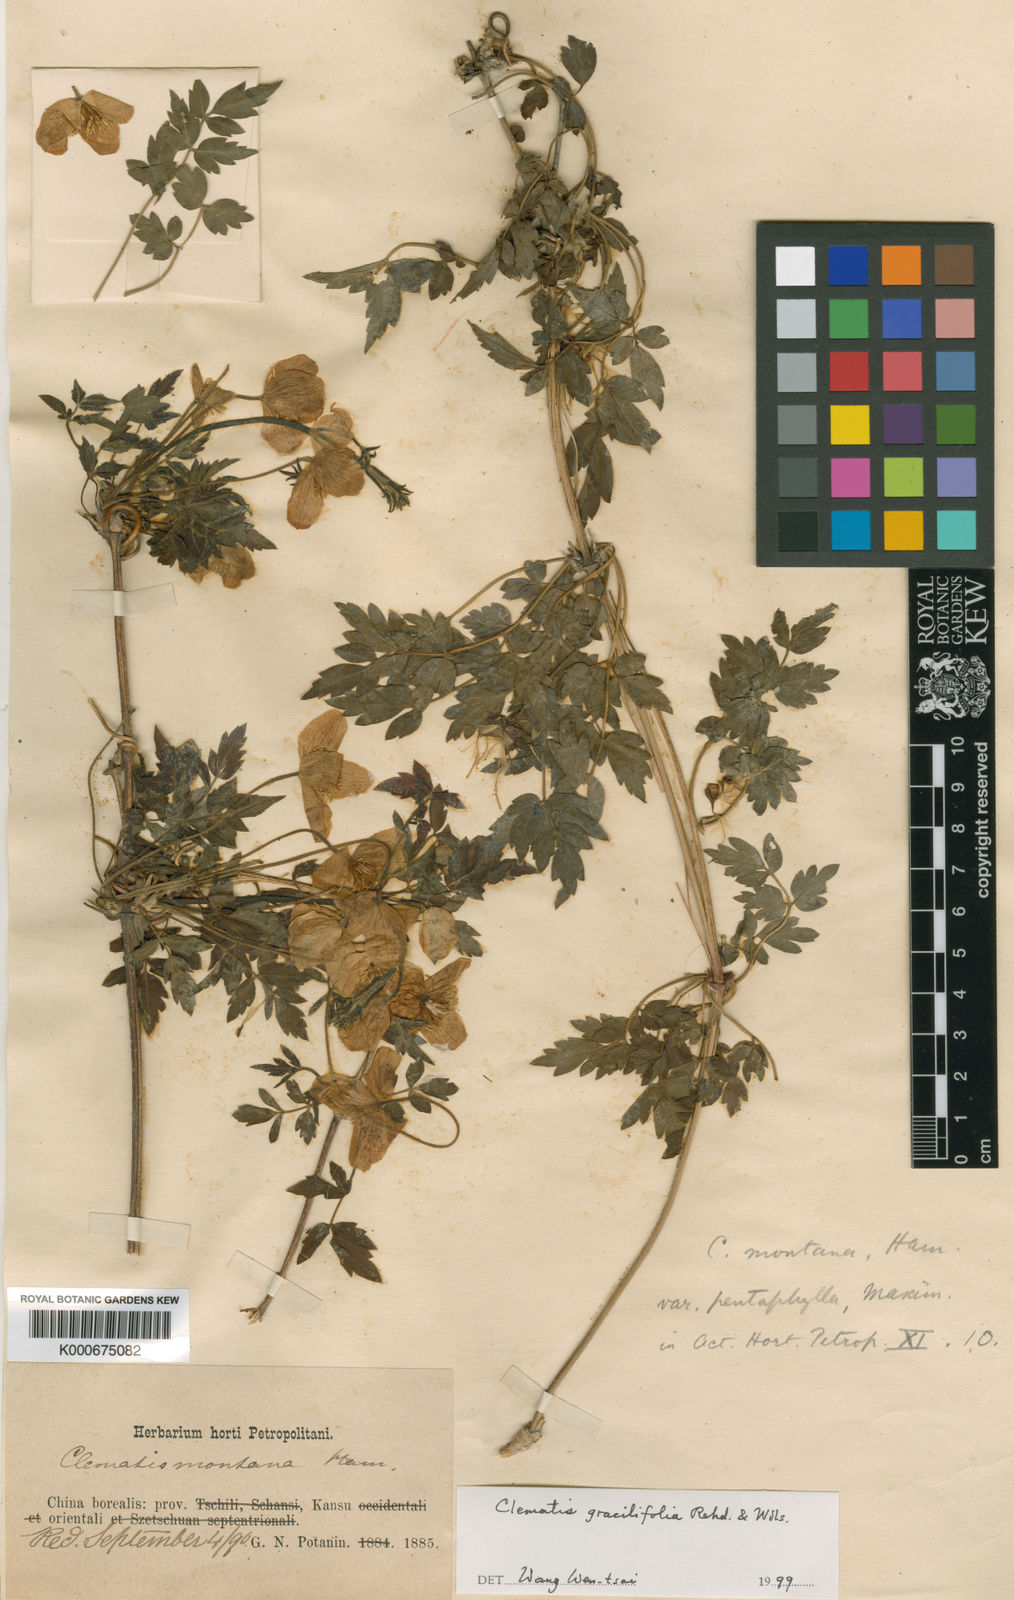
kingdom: Plantae
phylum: Tracheophyta
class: Magnoliopsida
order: Ranunculales
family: Ranunculaceae
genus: Clematis
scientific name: Clematis gracilifolia
